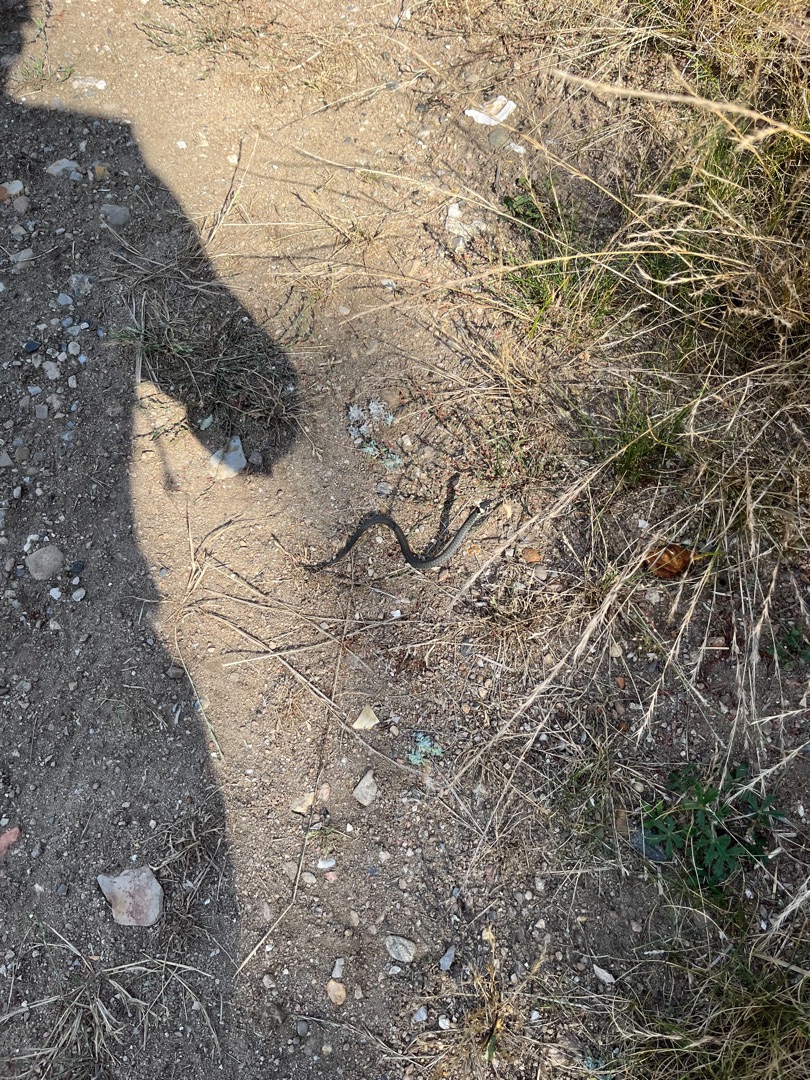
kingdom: Animalia
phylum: Chordata
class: Squamata
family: Colubridae
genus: Natrix
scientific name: Natrix natrix
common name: Snog
